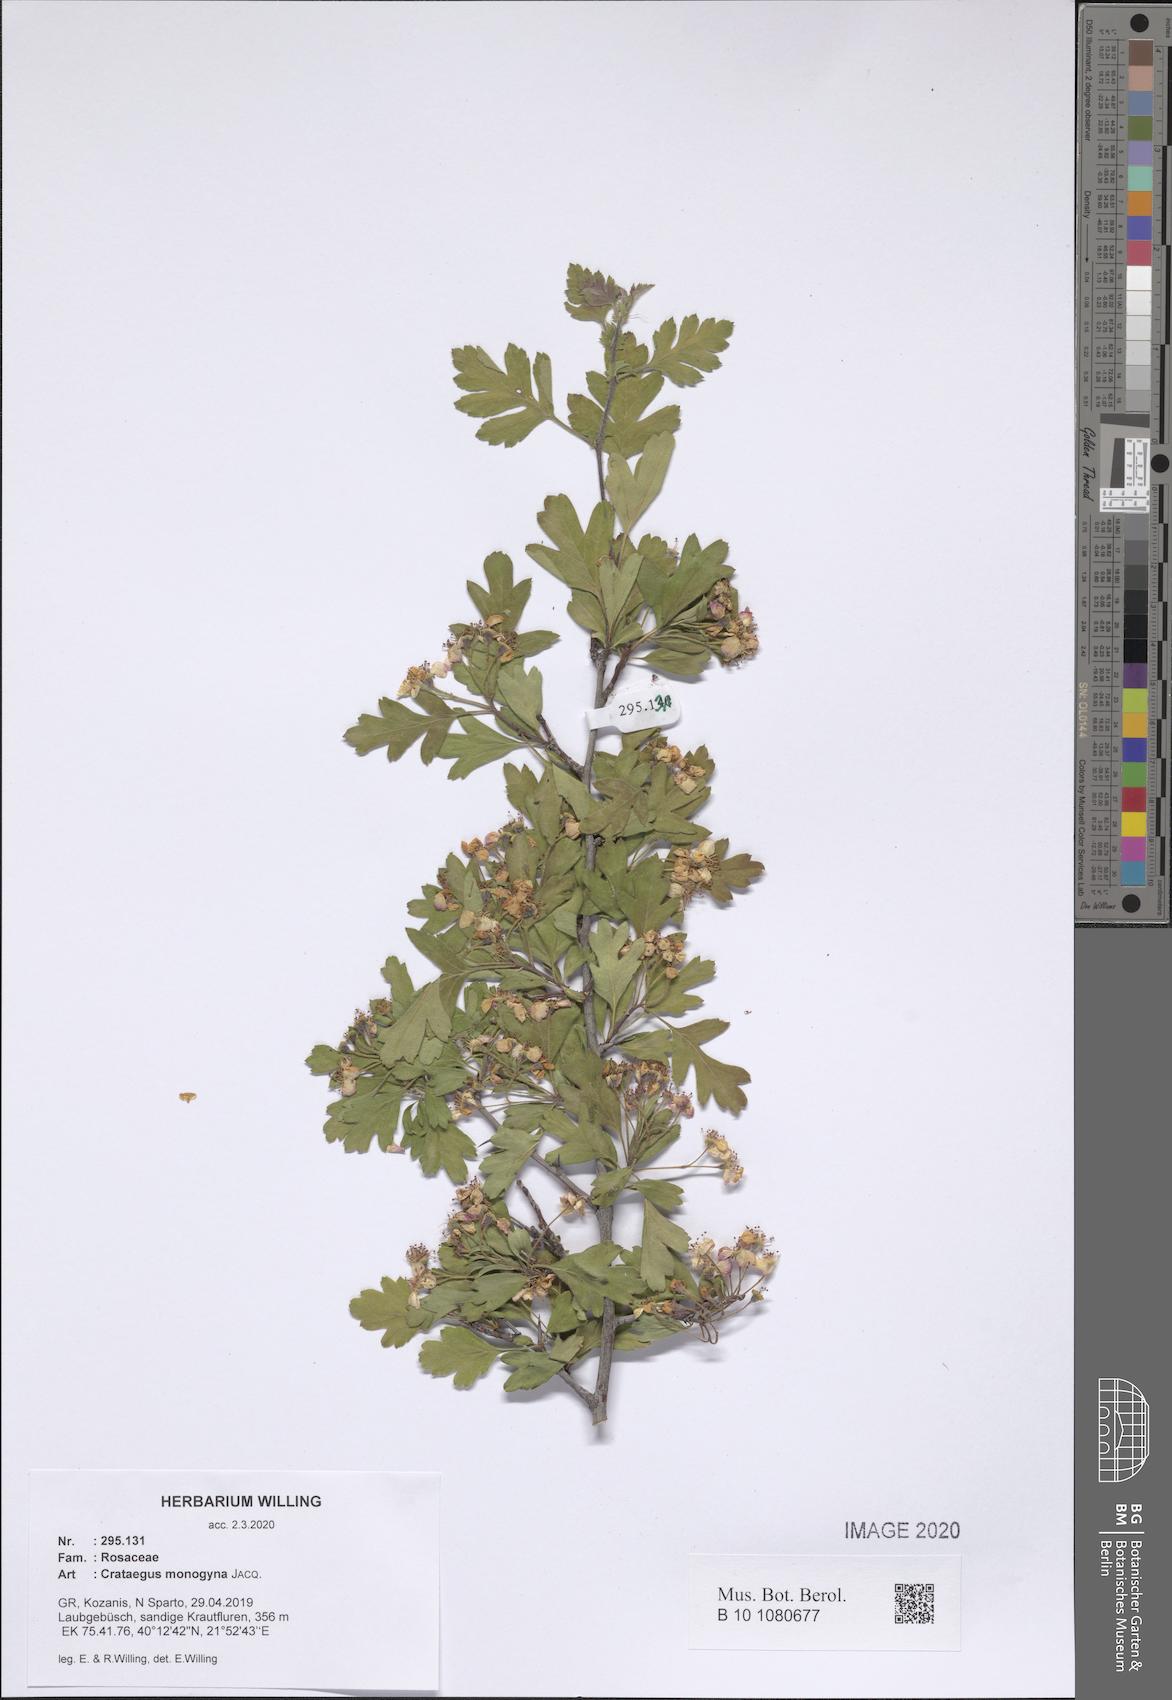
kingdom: Plantae
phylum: Tracheophyta
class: Magnoliopsida
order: Rosales
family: Rosaceae
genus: Crataegus
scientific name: Crataegus monogyna
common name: Hawthorn
